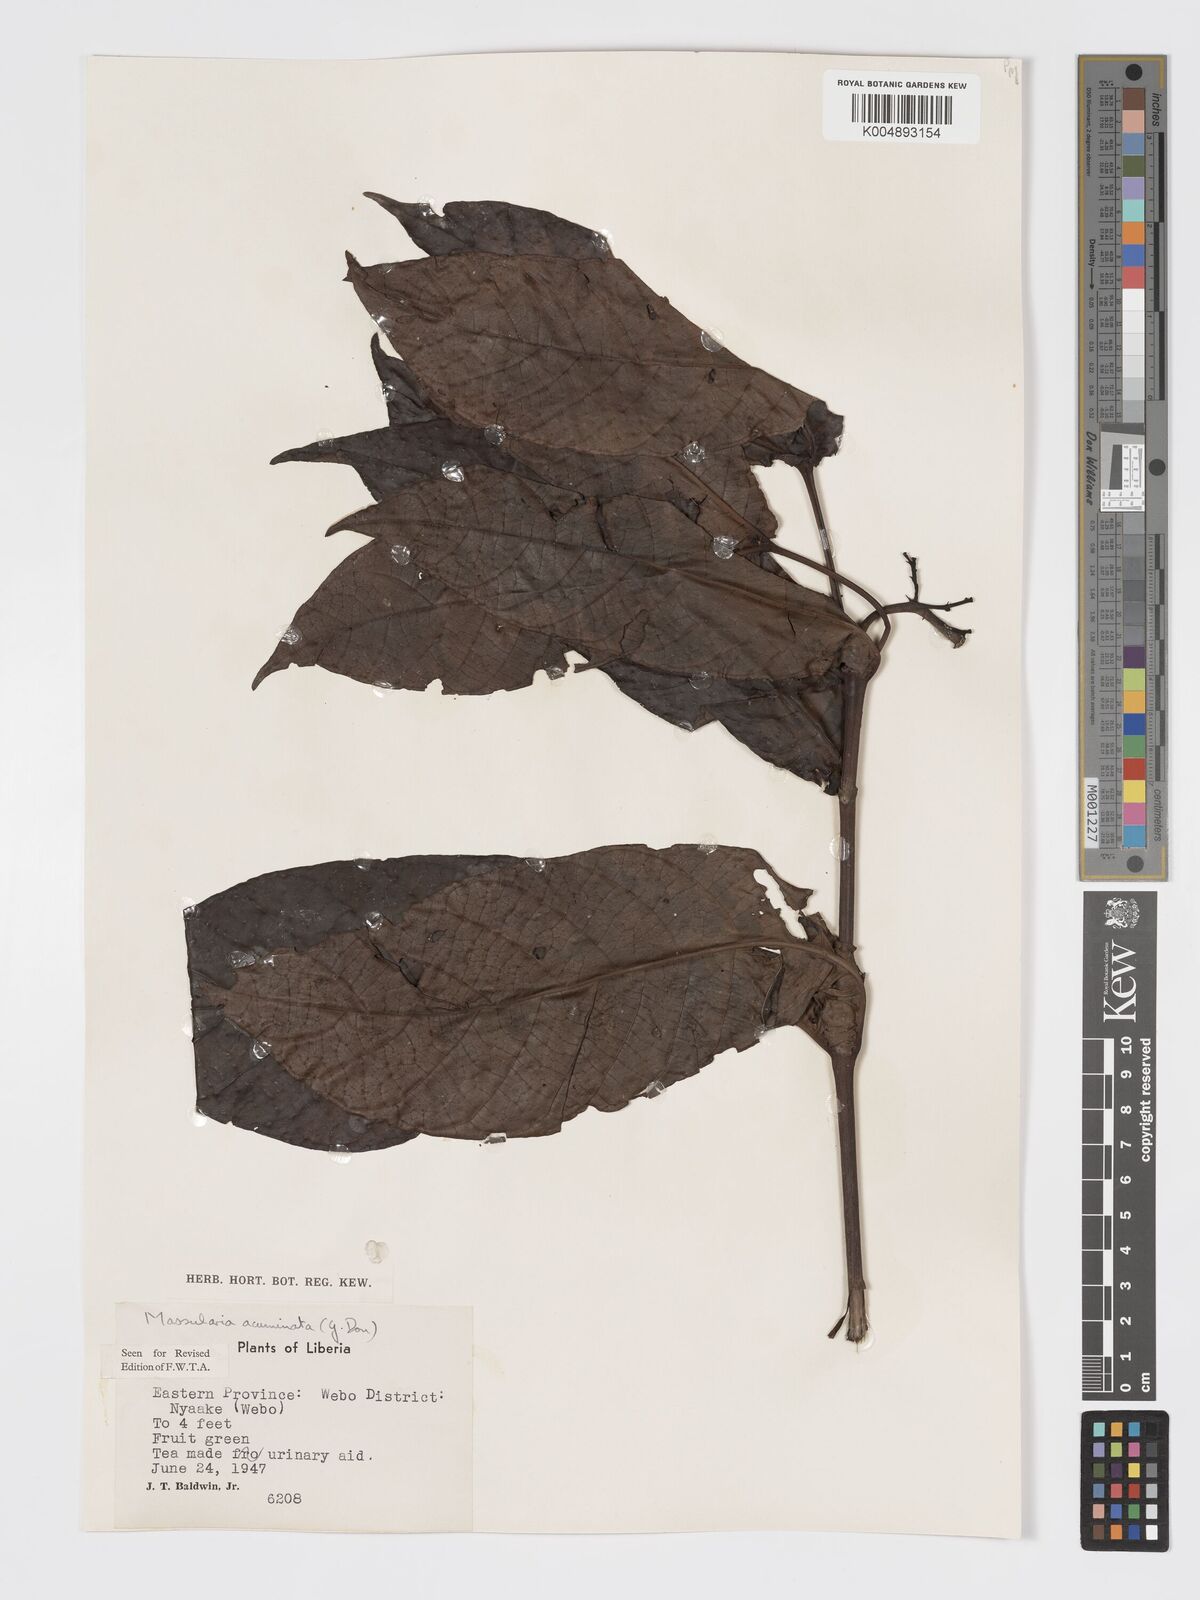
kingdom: Plantae
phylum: Tracheophyta
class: Magnoliopsida
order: Gentianales
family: Rubiaceae
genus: Massularia
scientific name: Massularia acuminata
